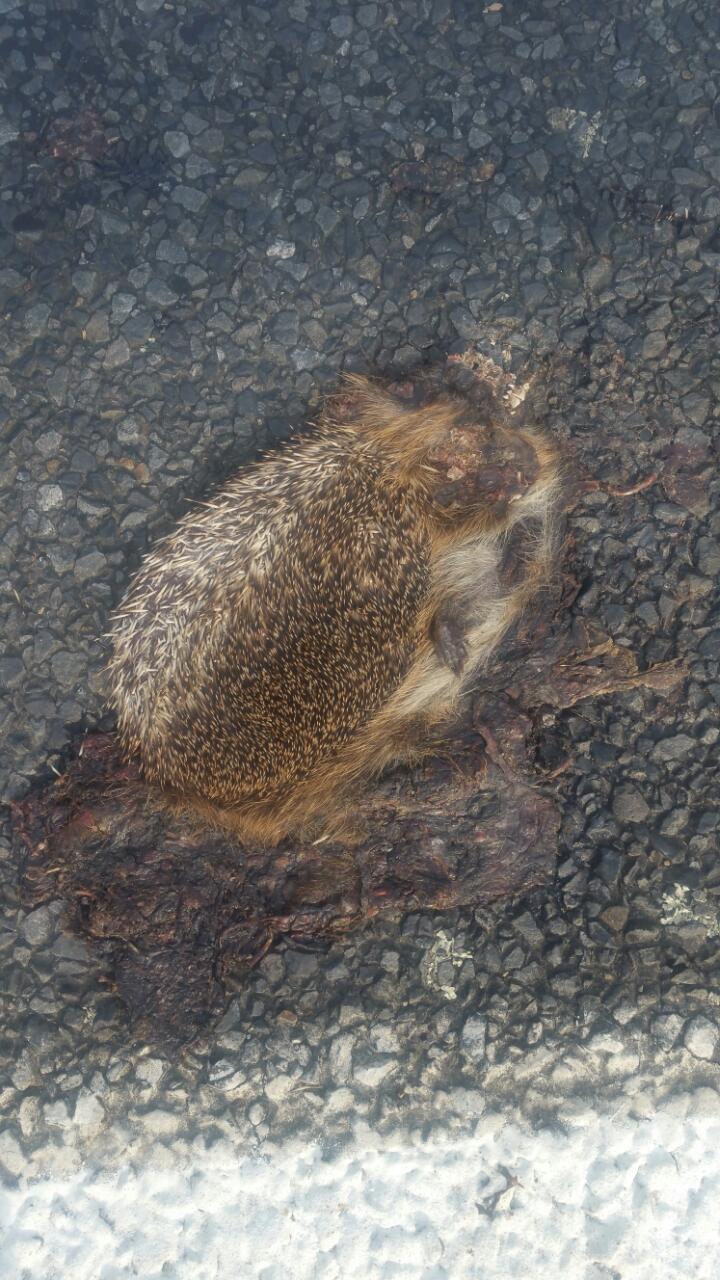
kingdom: Animalia
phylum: Chordata
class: Mammalia
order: Erinaceomorpha
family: Erinaceidae
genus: Erinaceus
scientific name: Erinaceus
